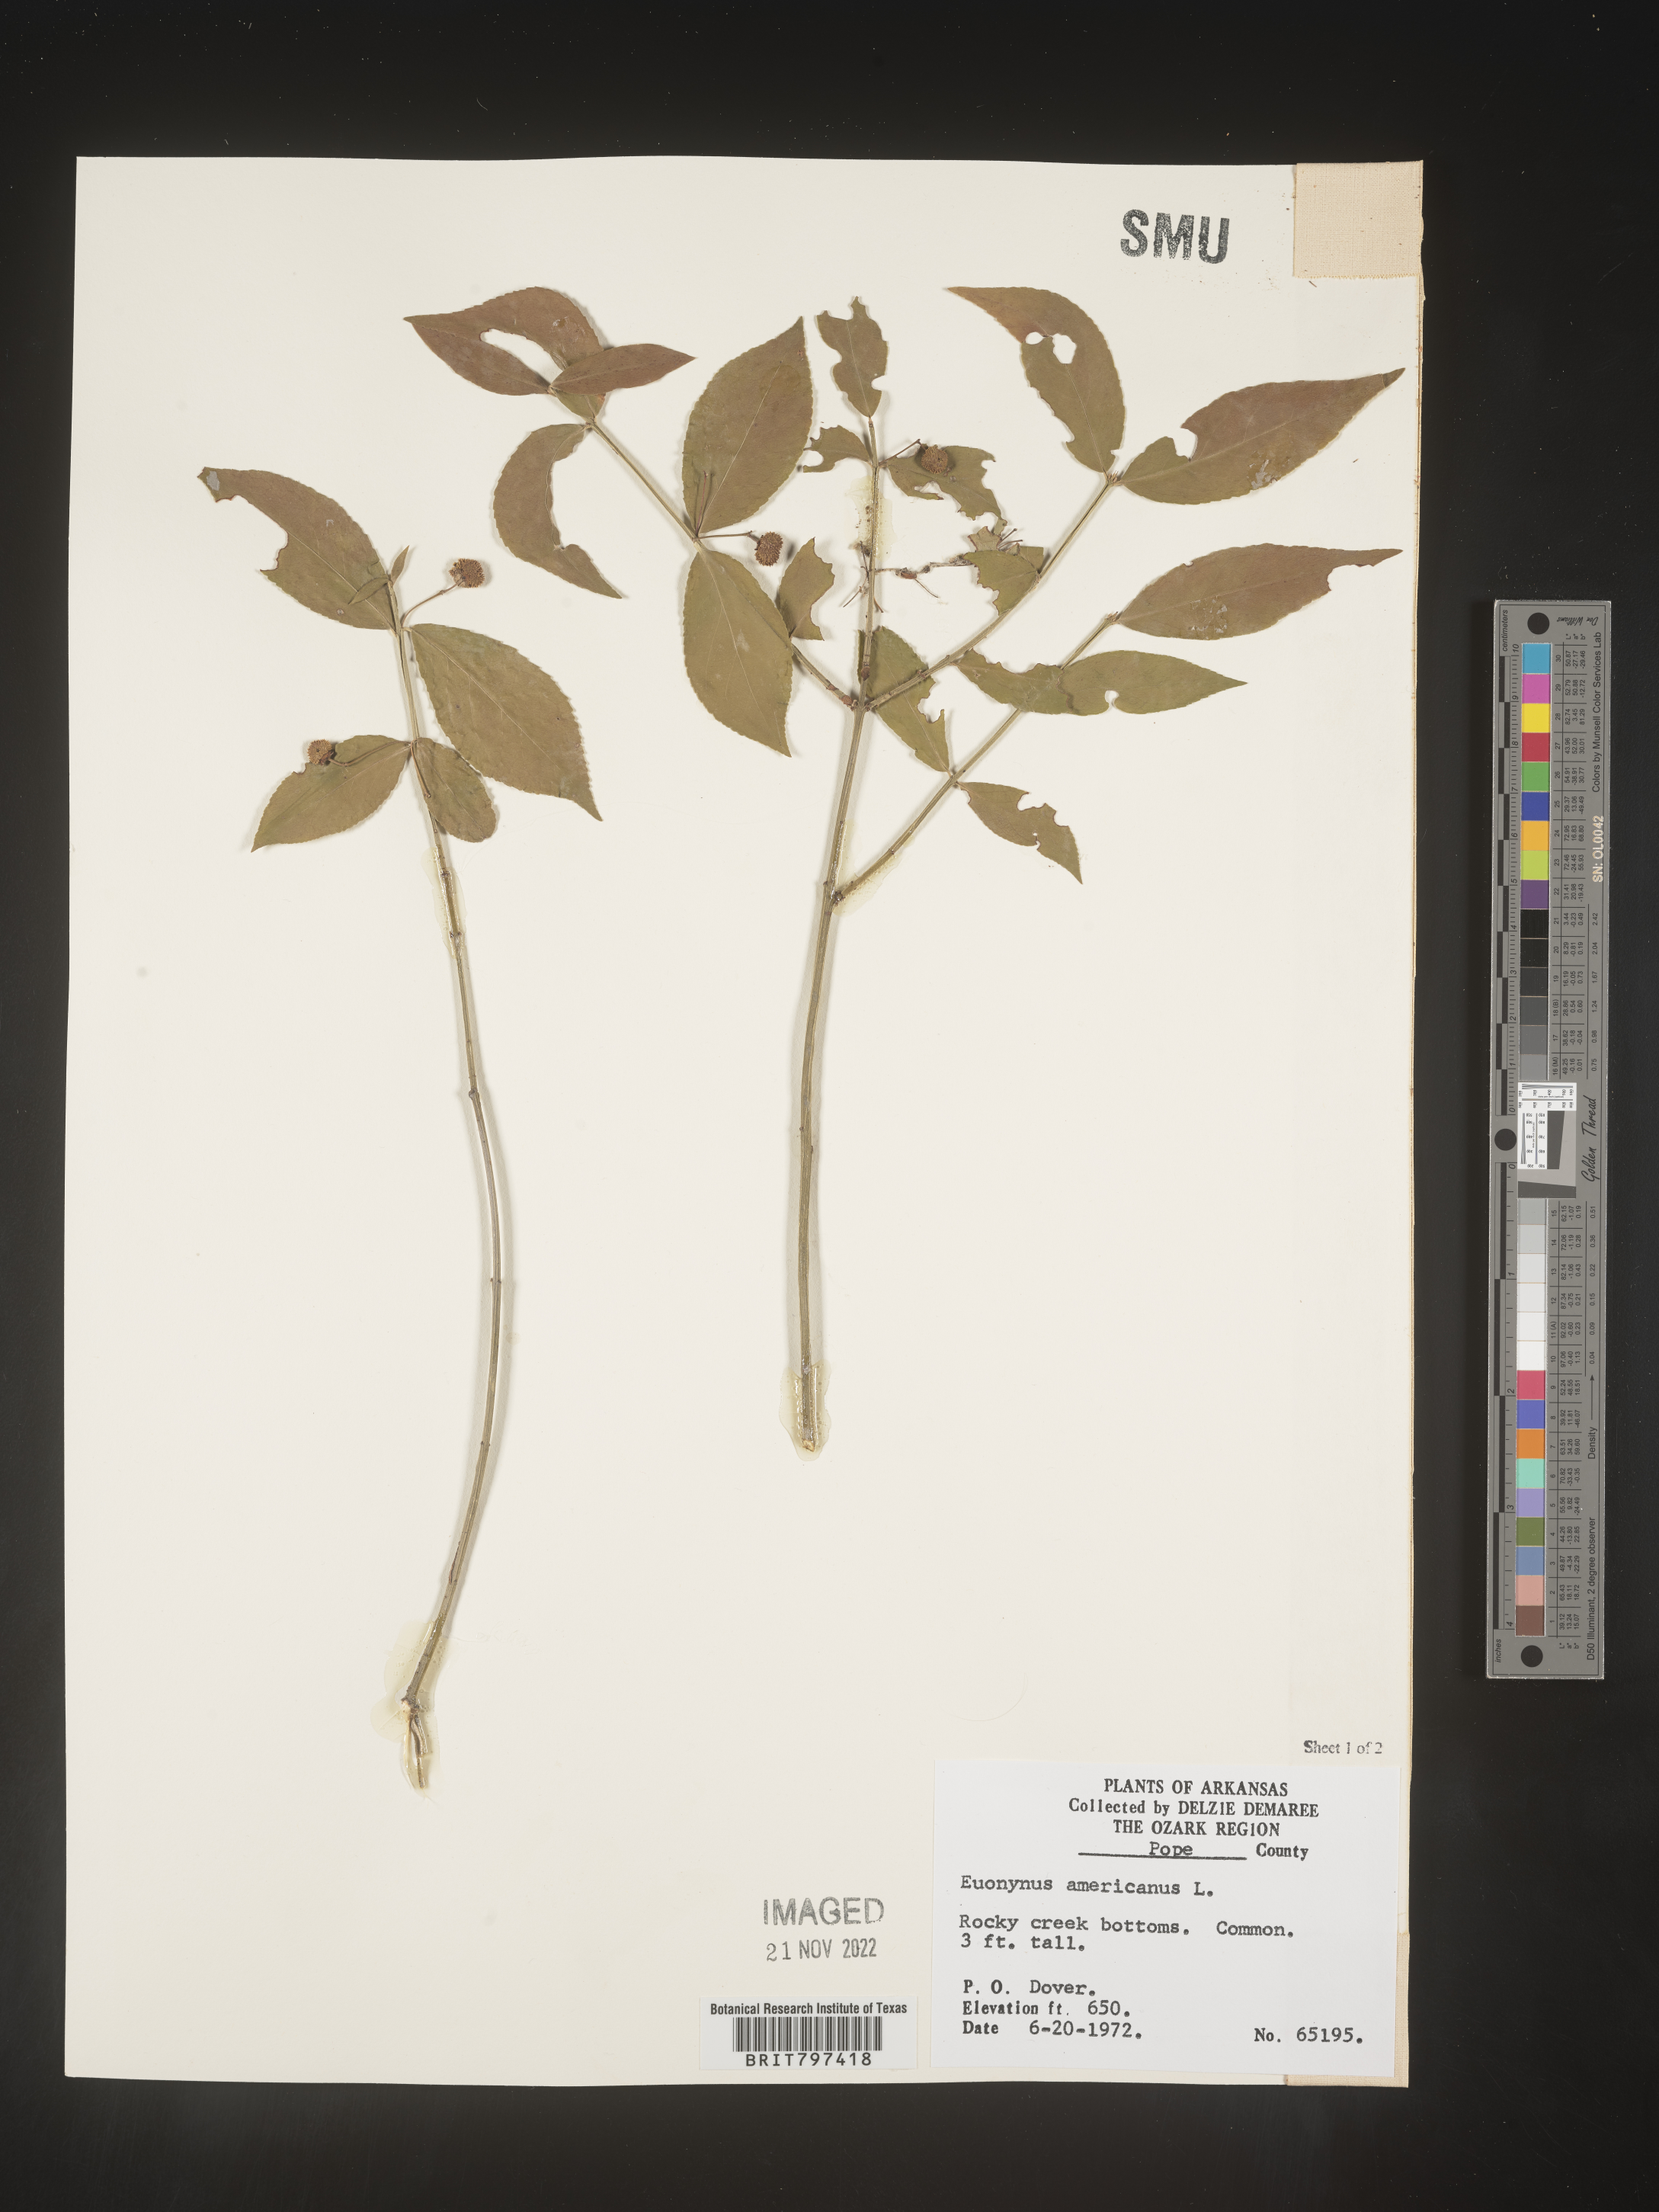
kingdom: Plantae
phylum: Tracheophyta
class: Magnoliopsida
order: Celastrales
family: Celastraceae
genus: Euonymus
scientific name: Euonymus americanus
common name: Bursting-heart
